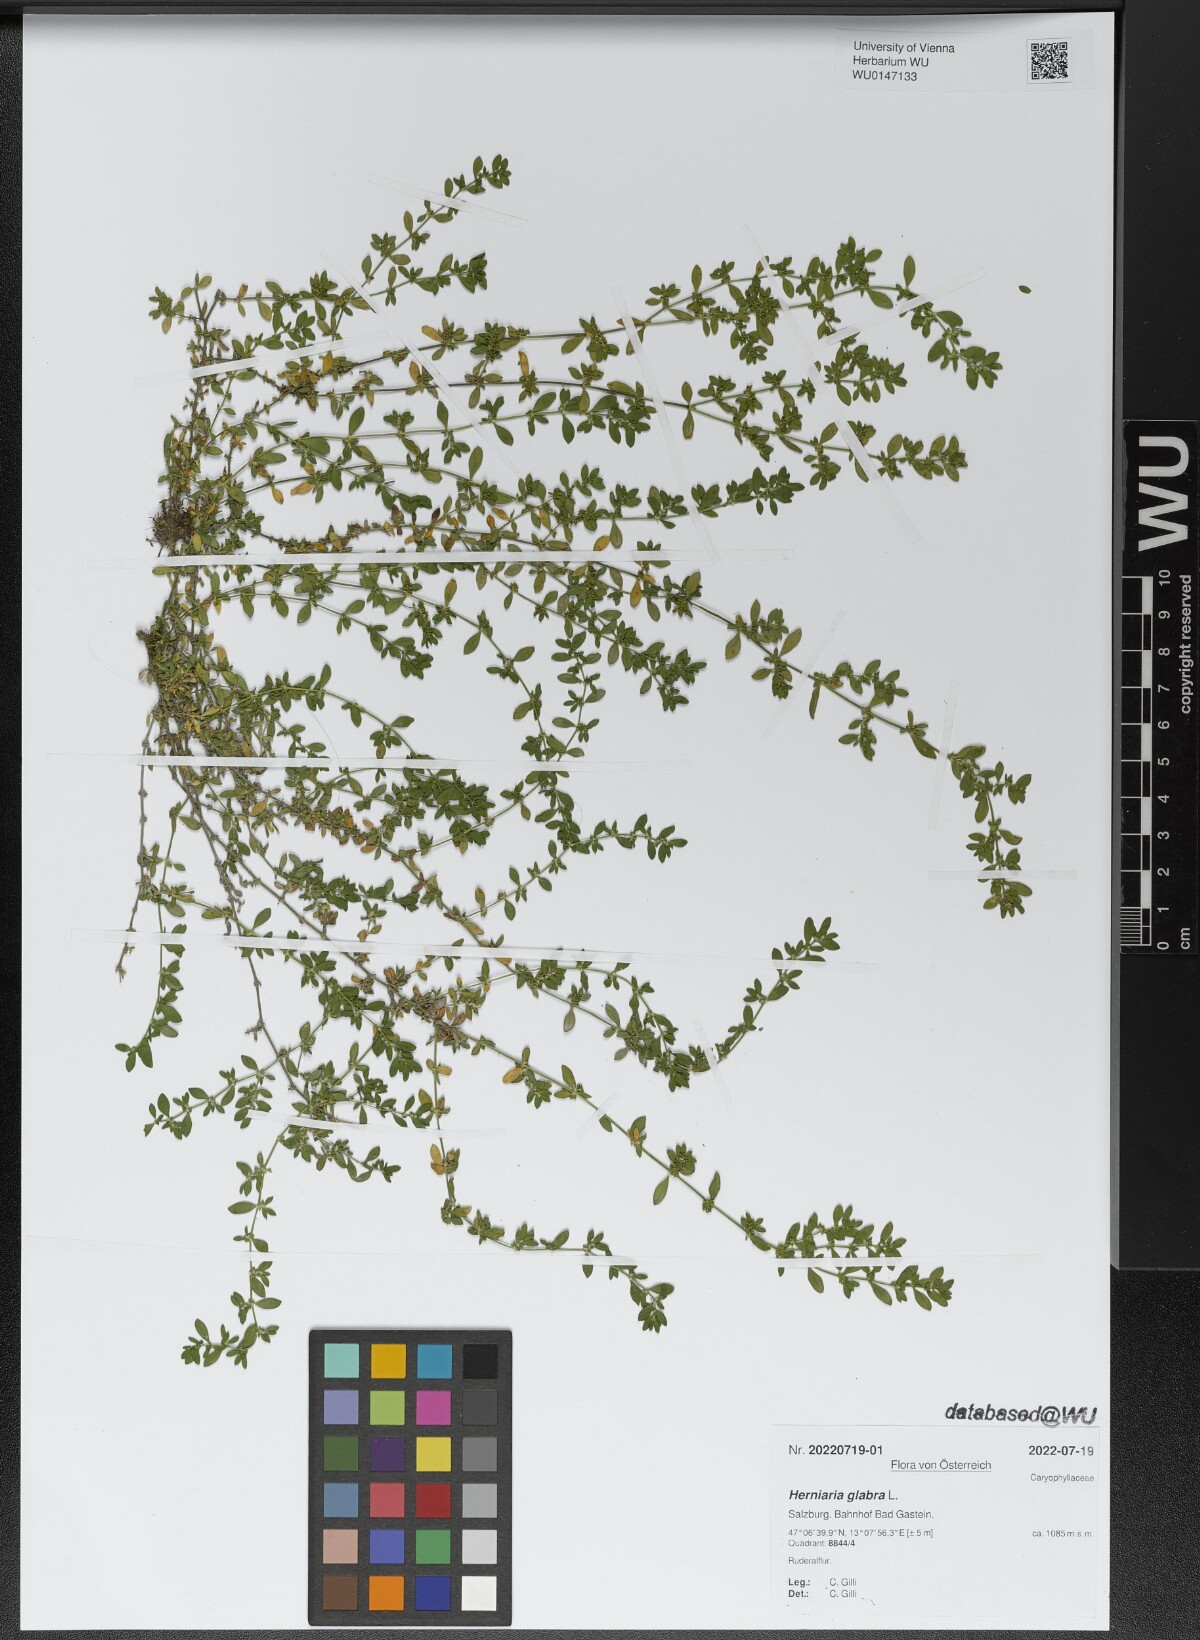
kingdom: Plantae
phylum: Tracheophyta
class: Magnoliopsida
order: Caryophyllales
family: Caryophyllaceae
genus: Herniaria
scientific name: Herniaria glabra
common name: Smooth rupturewort
